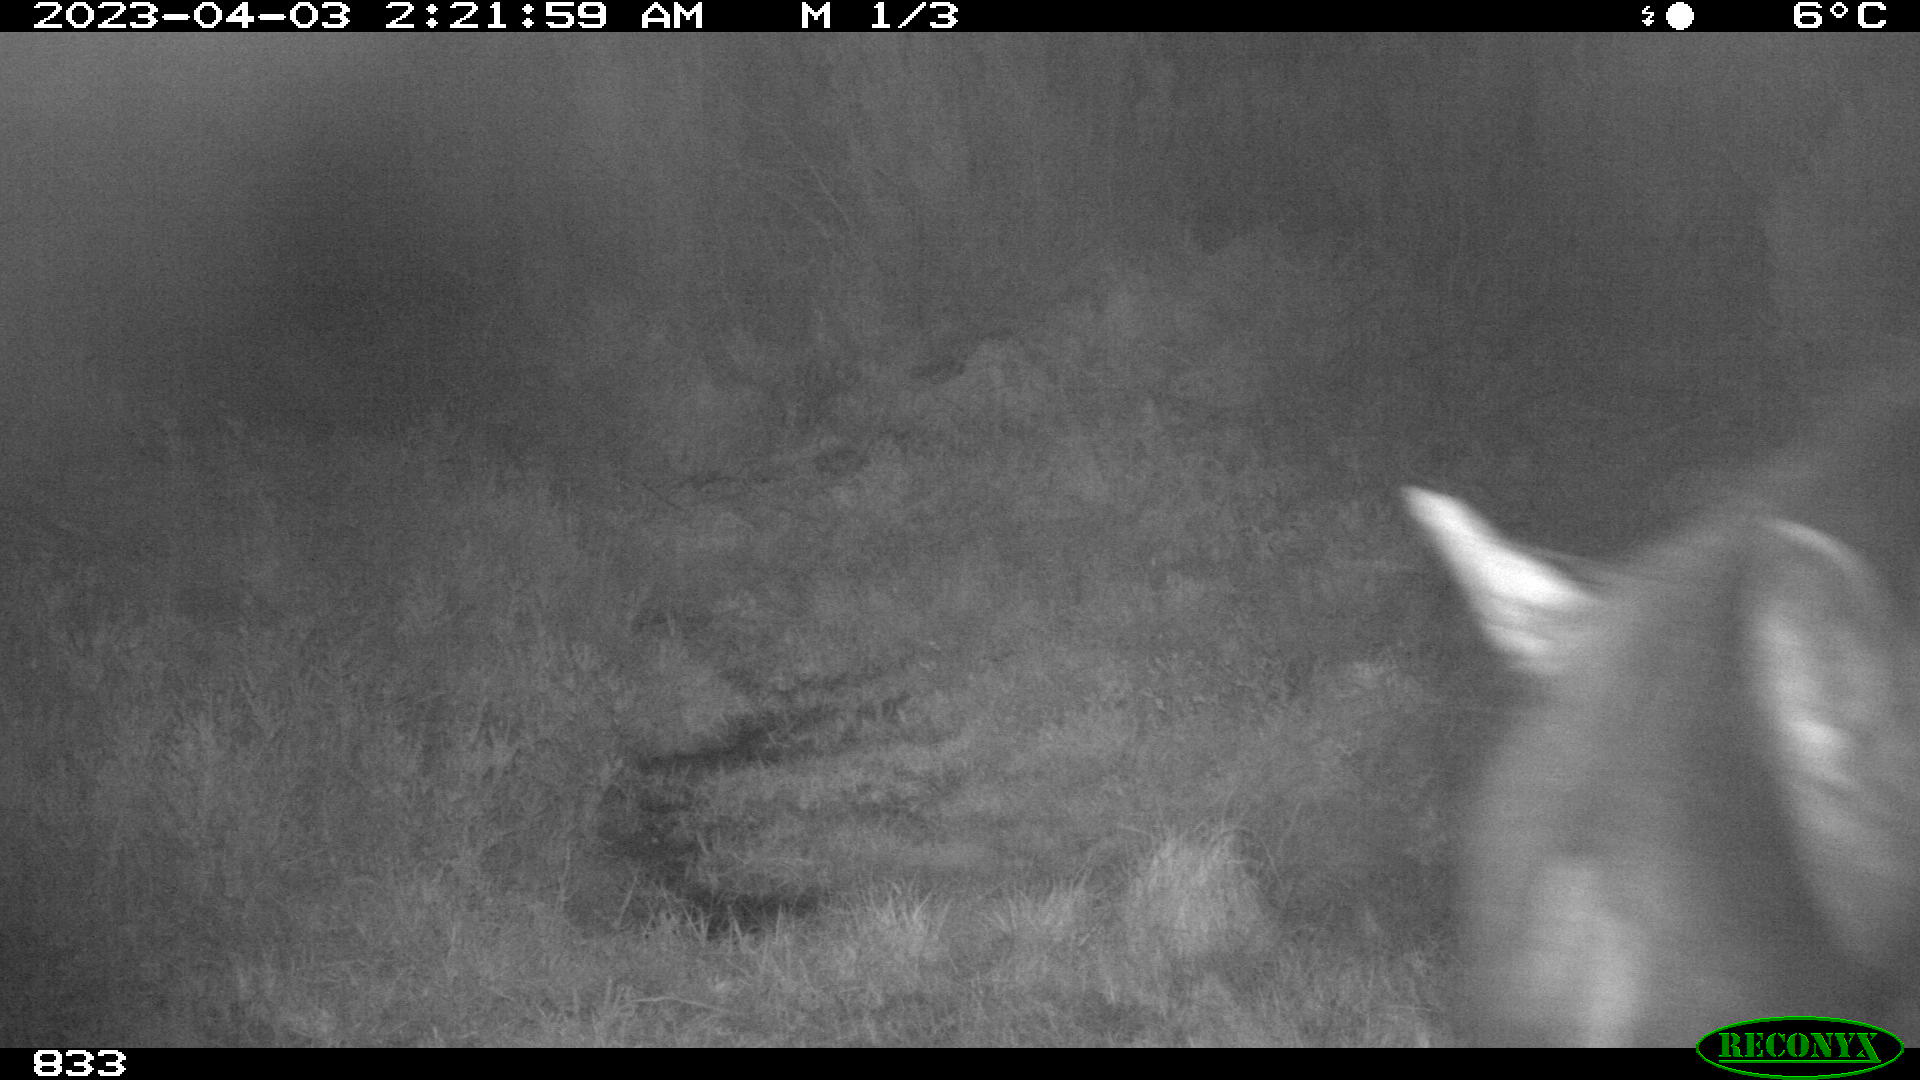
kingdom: Animalia
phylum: Chordata
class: Mammalia
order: Perissodactyla
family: Equidae
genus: Equus
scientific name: Equus caballus
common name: Horse
